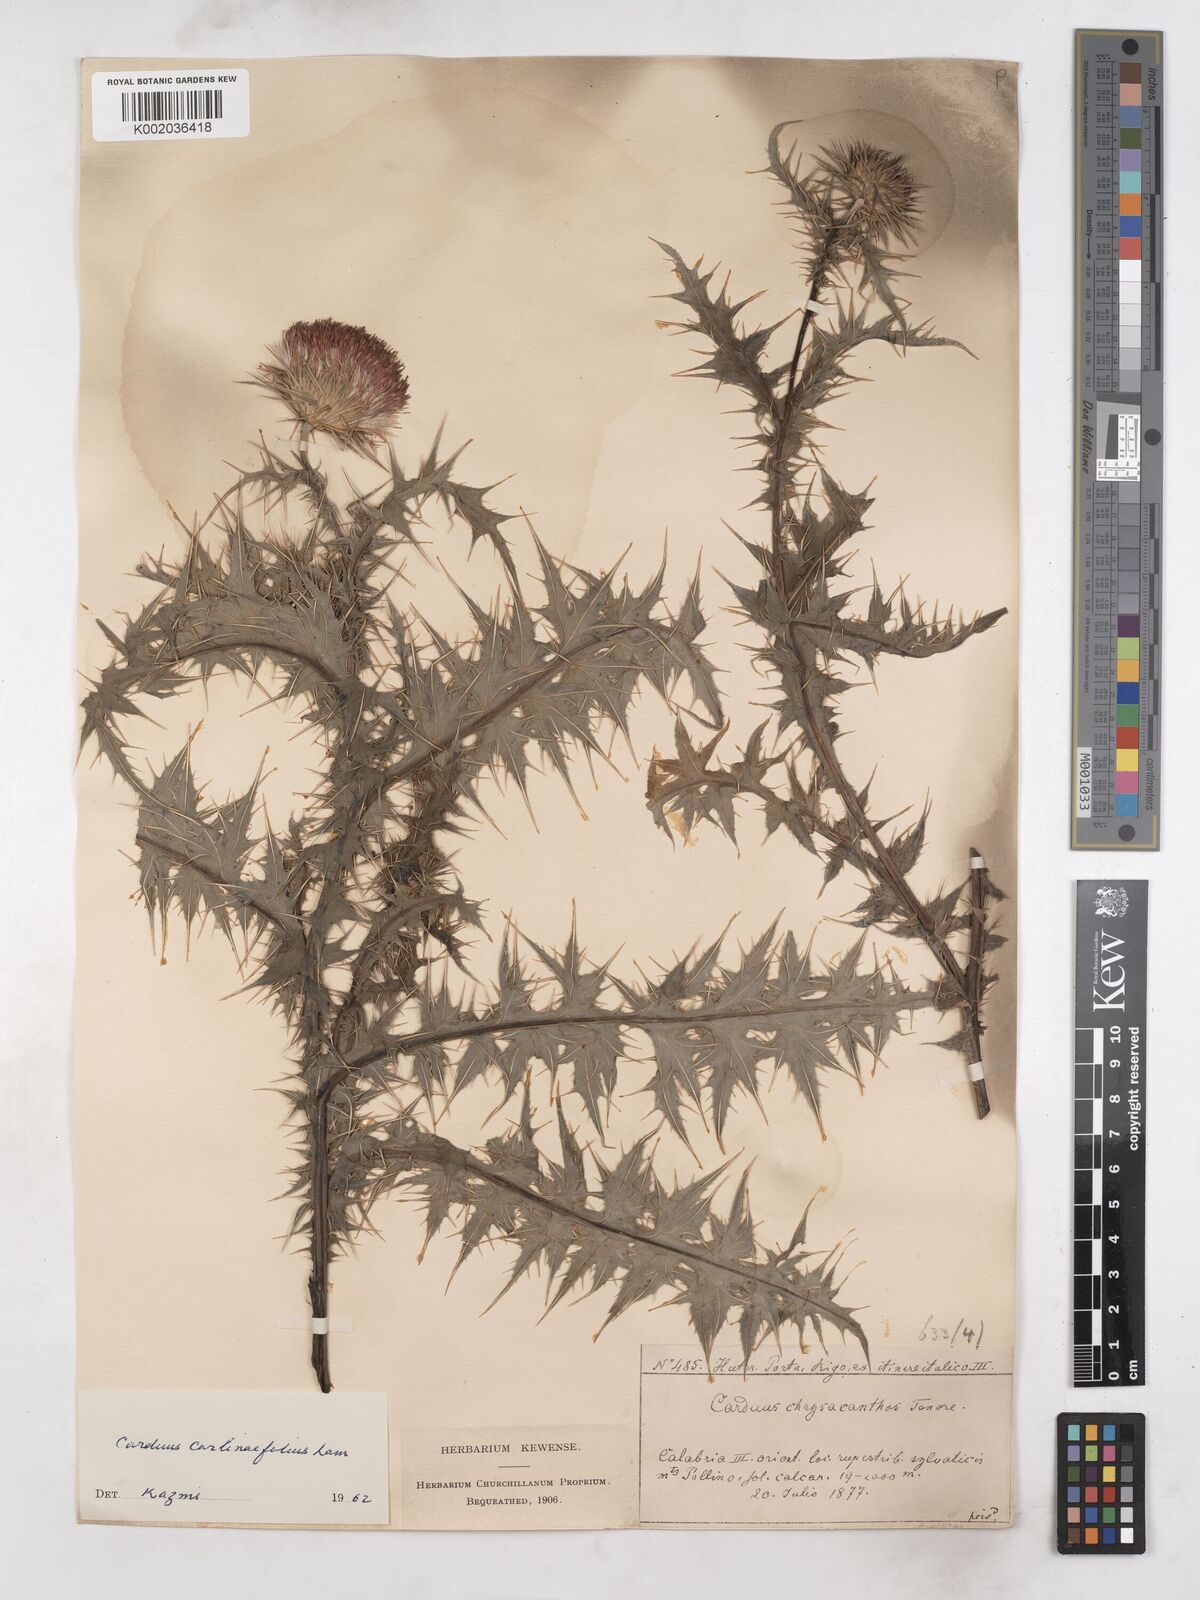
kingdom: Plantae
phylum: Tracheophyta
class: Magnoliopsida
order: Asterales
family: Asteraceae
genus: Carduus
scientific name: Carduus carlinifolius
